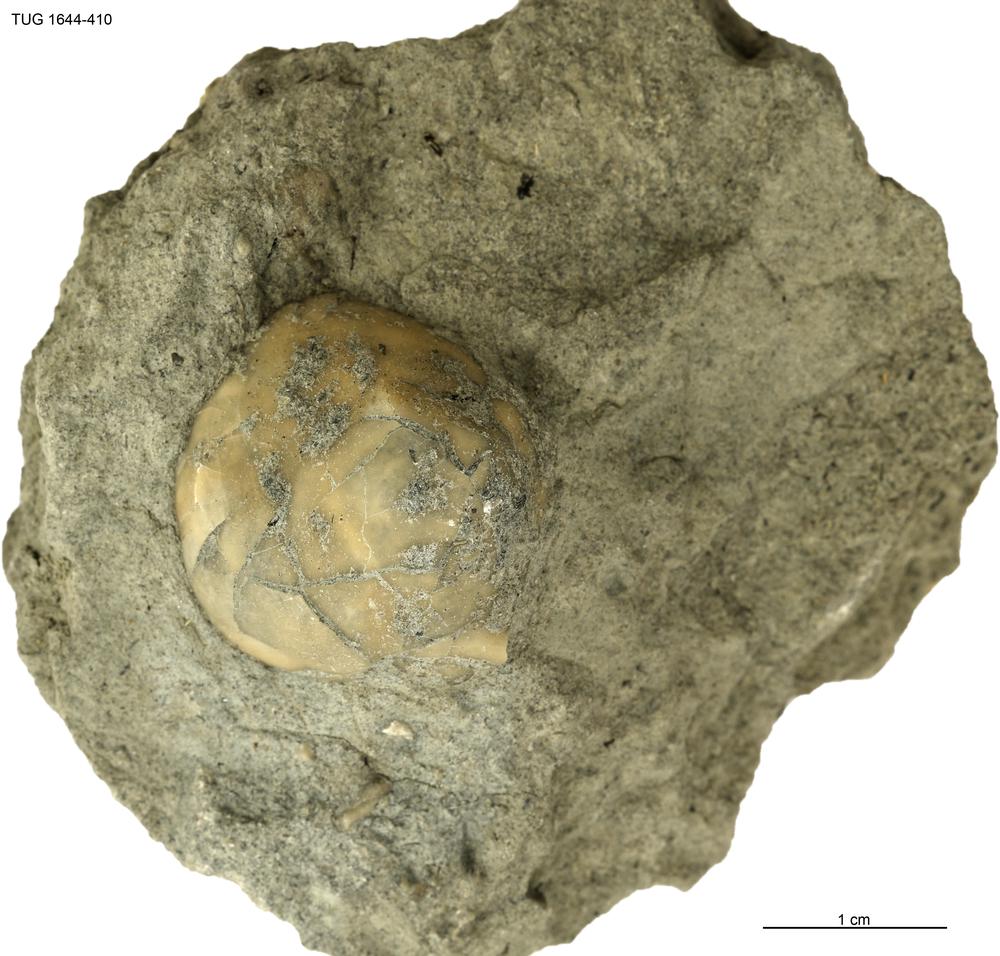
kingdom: Animalia
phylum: Arthropoda
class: Trilobita
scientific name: Trilobita
